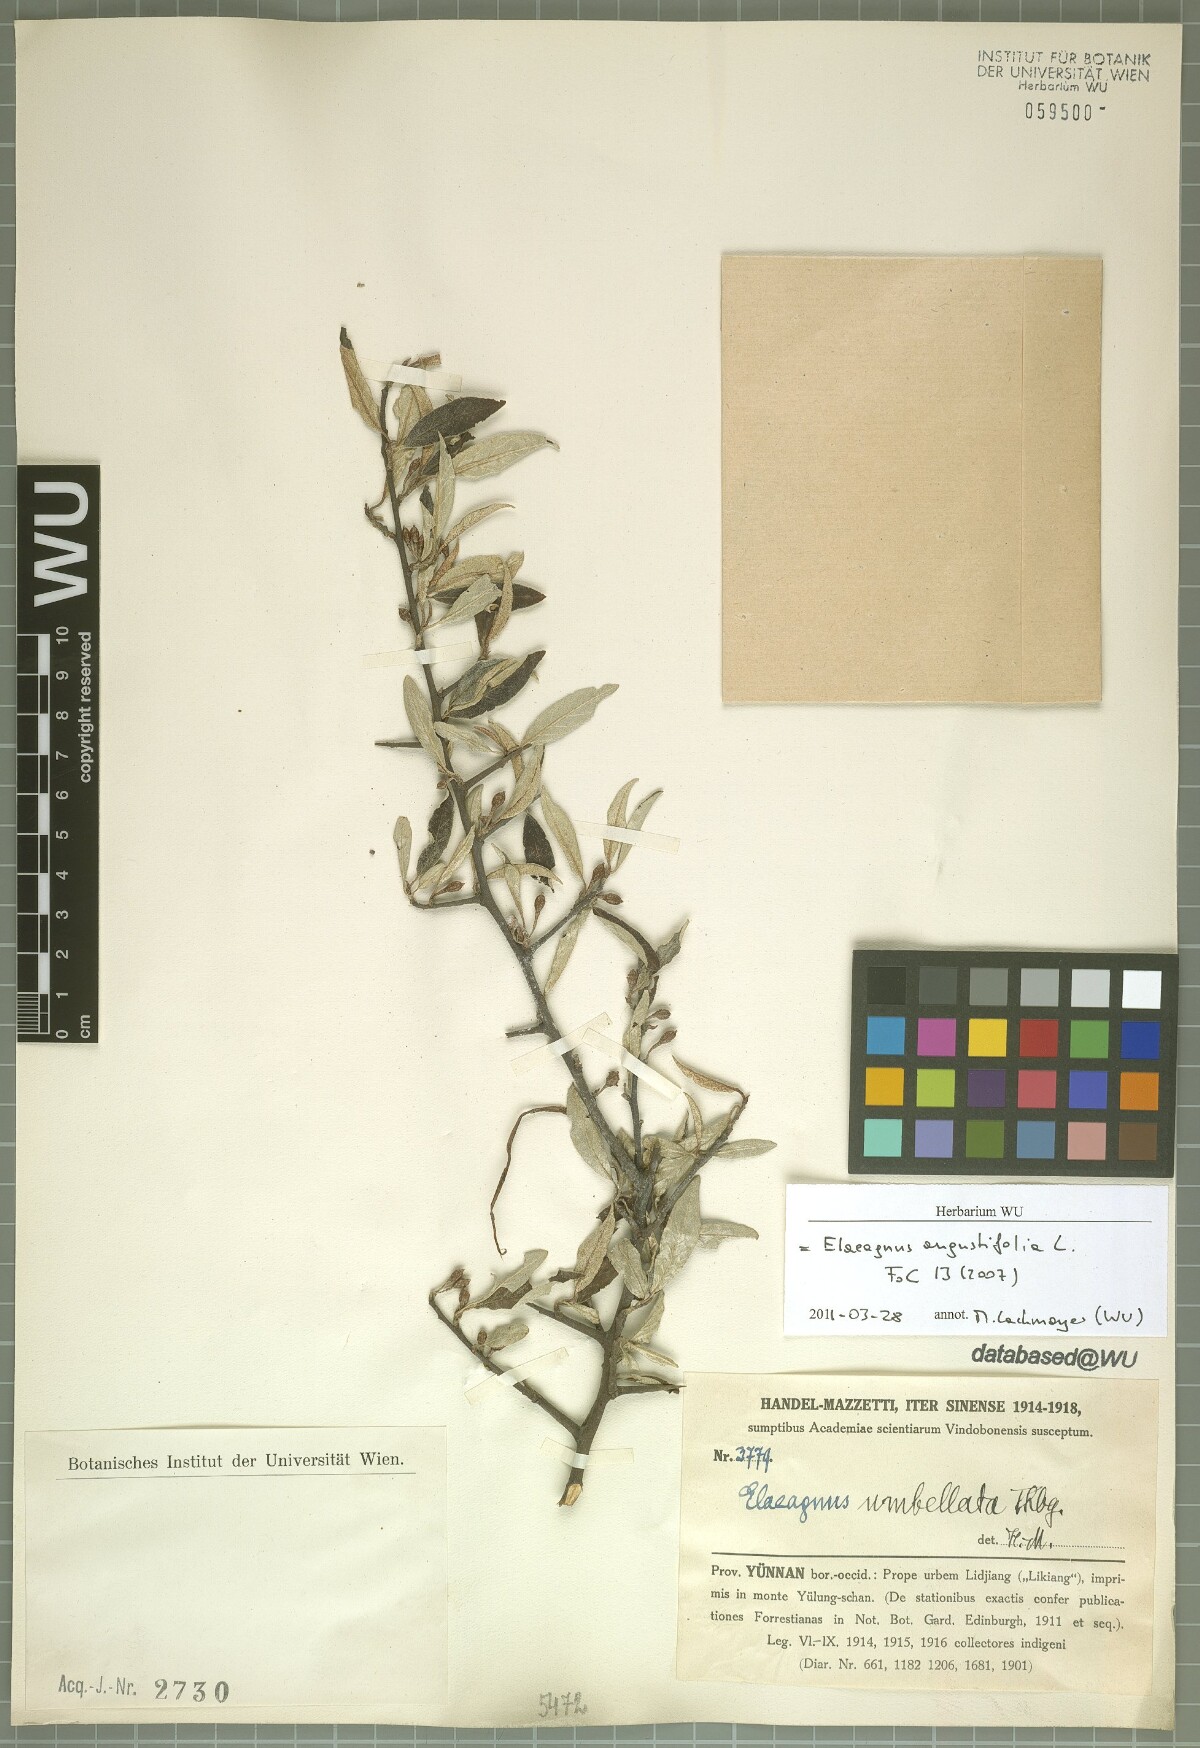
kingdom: Plantae
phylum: Tracheophyta
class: Magnoliopsida
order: Rosales
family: Elaeagnaceae
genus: Elaeagnus
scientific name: Elaeagnus angustifolia
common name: Russian olive
